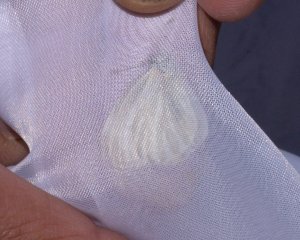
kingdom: Animalia
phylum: Arthropoda
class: Insecta
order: Lepidoptera
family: Pieridae
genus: Pieris
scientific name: Pieris virginiensis
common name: West Virginia White
